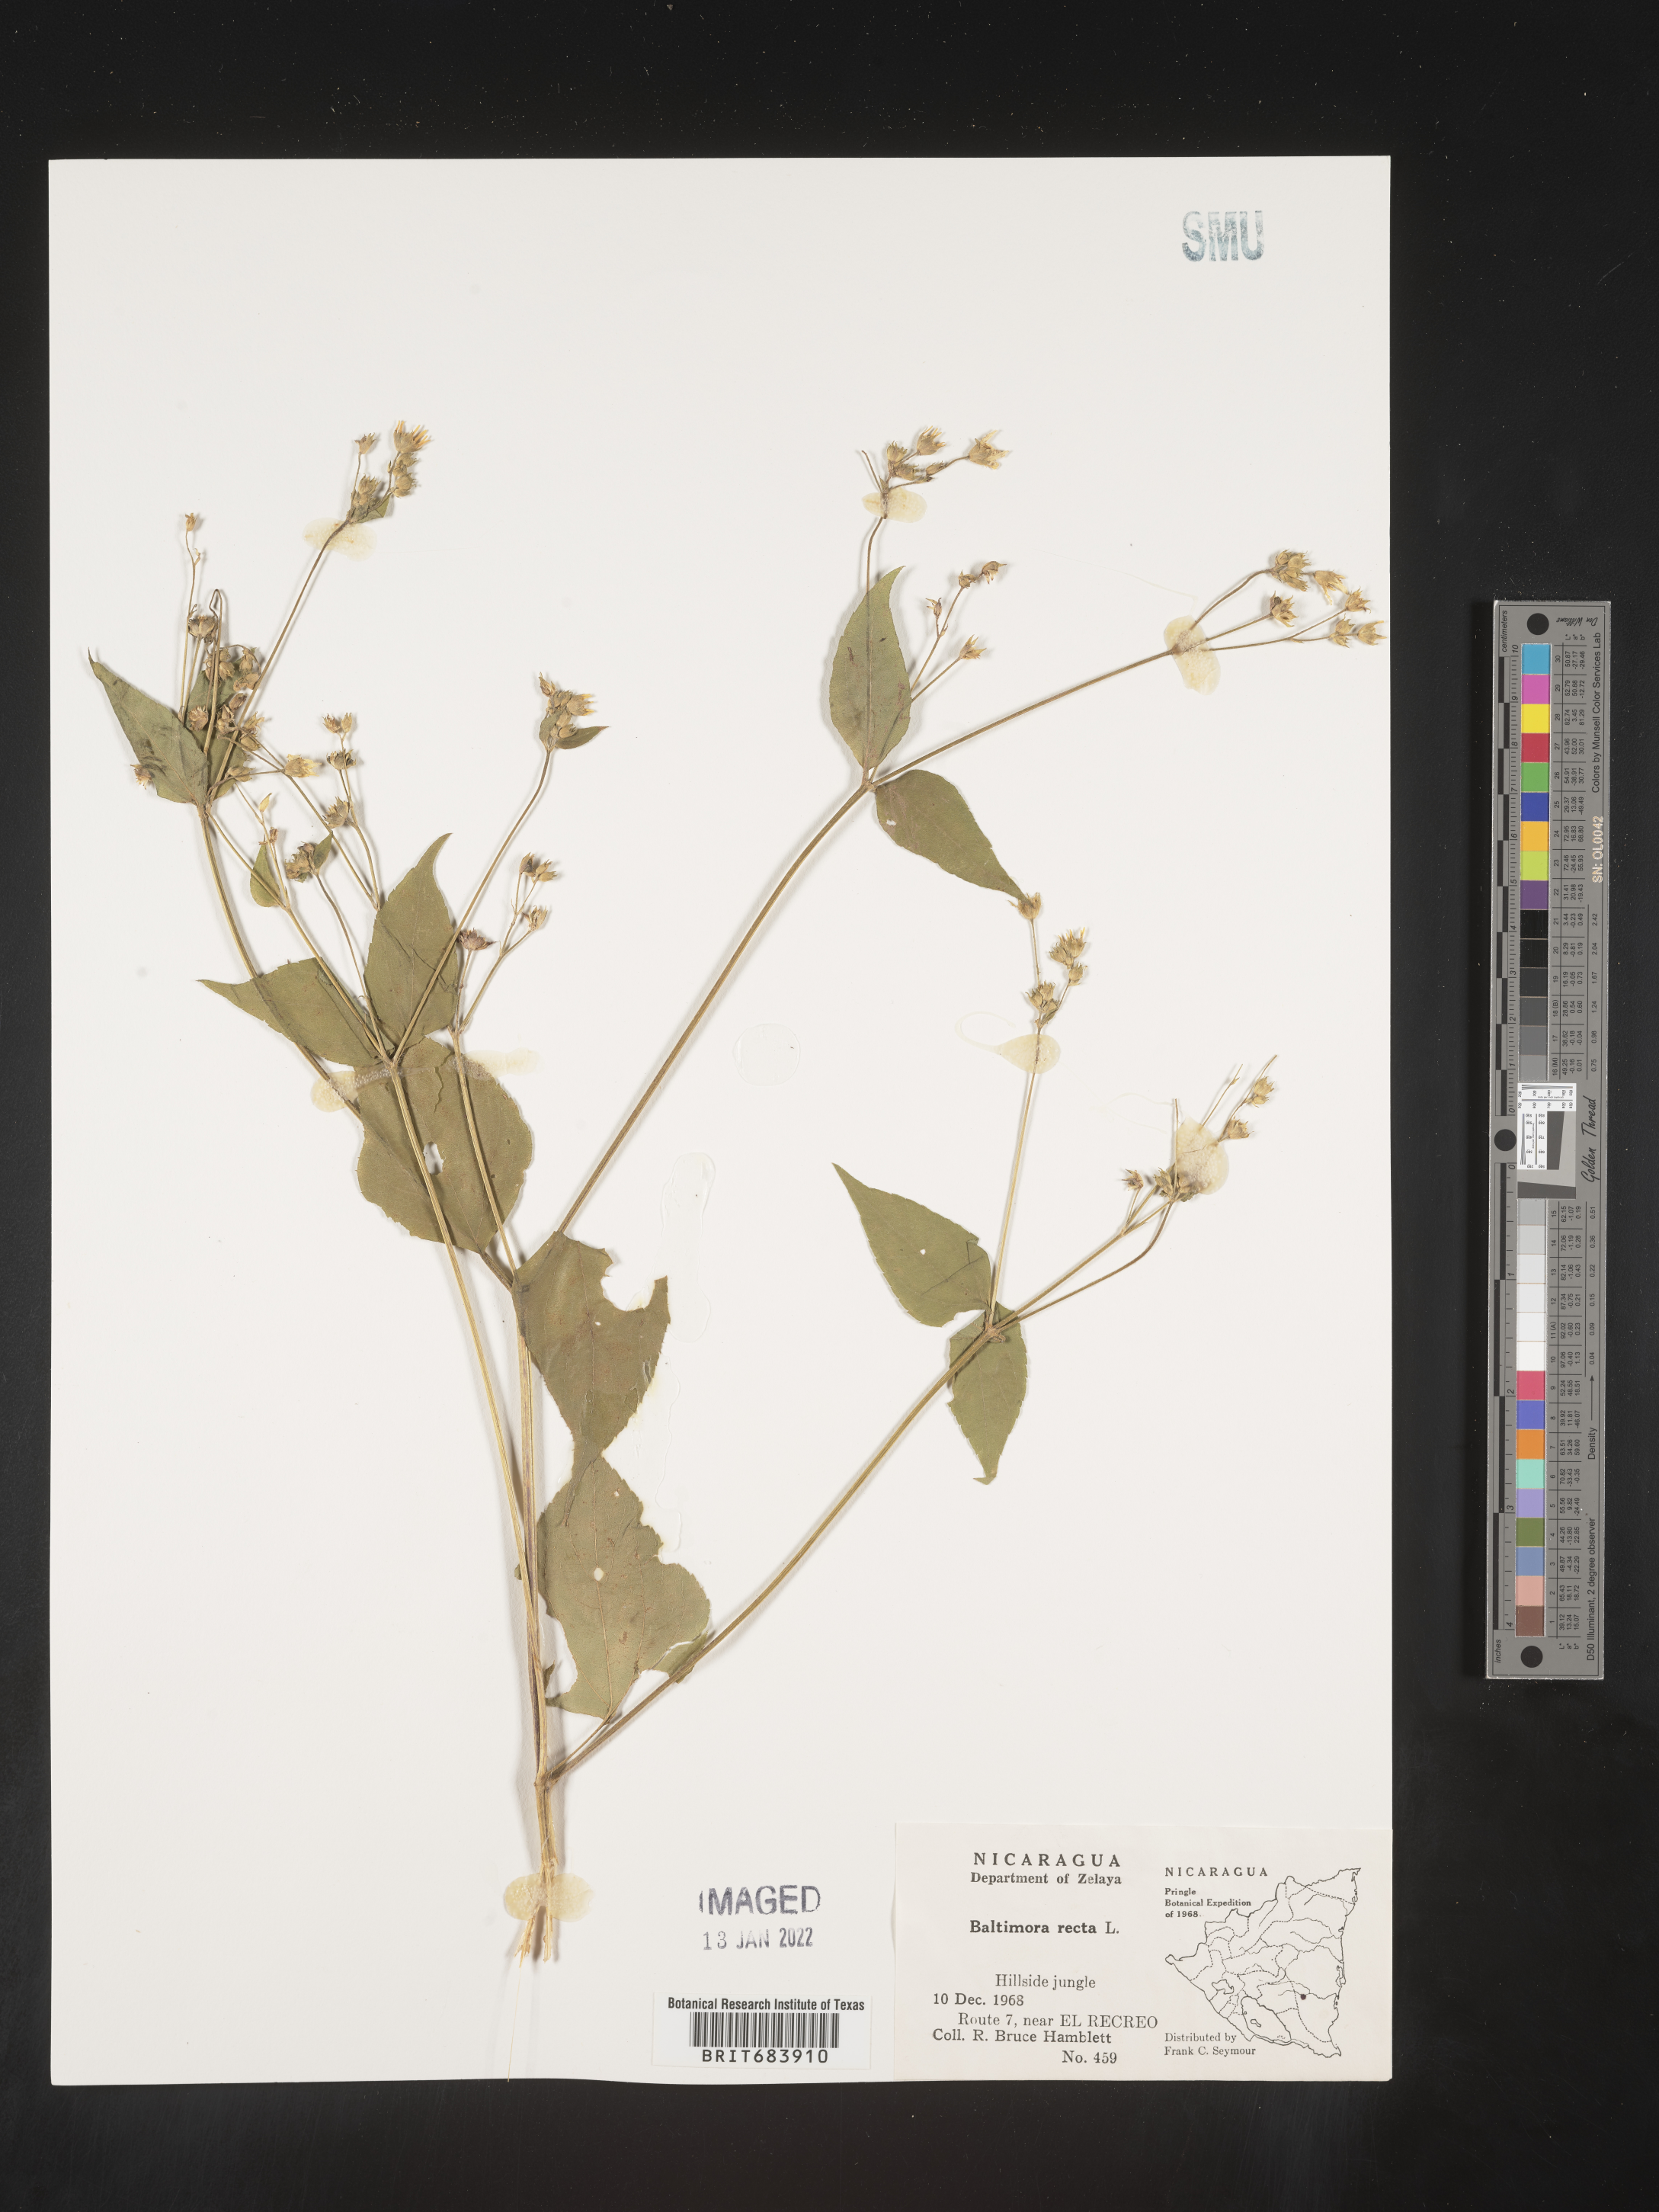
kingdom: Plantae
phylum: Tracheophyta
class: Magnoliopsida
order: Asterales
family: Asteraceae
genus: Baltimora
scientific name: Baltimora
